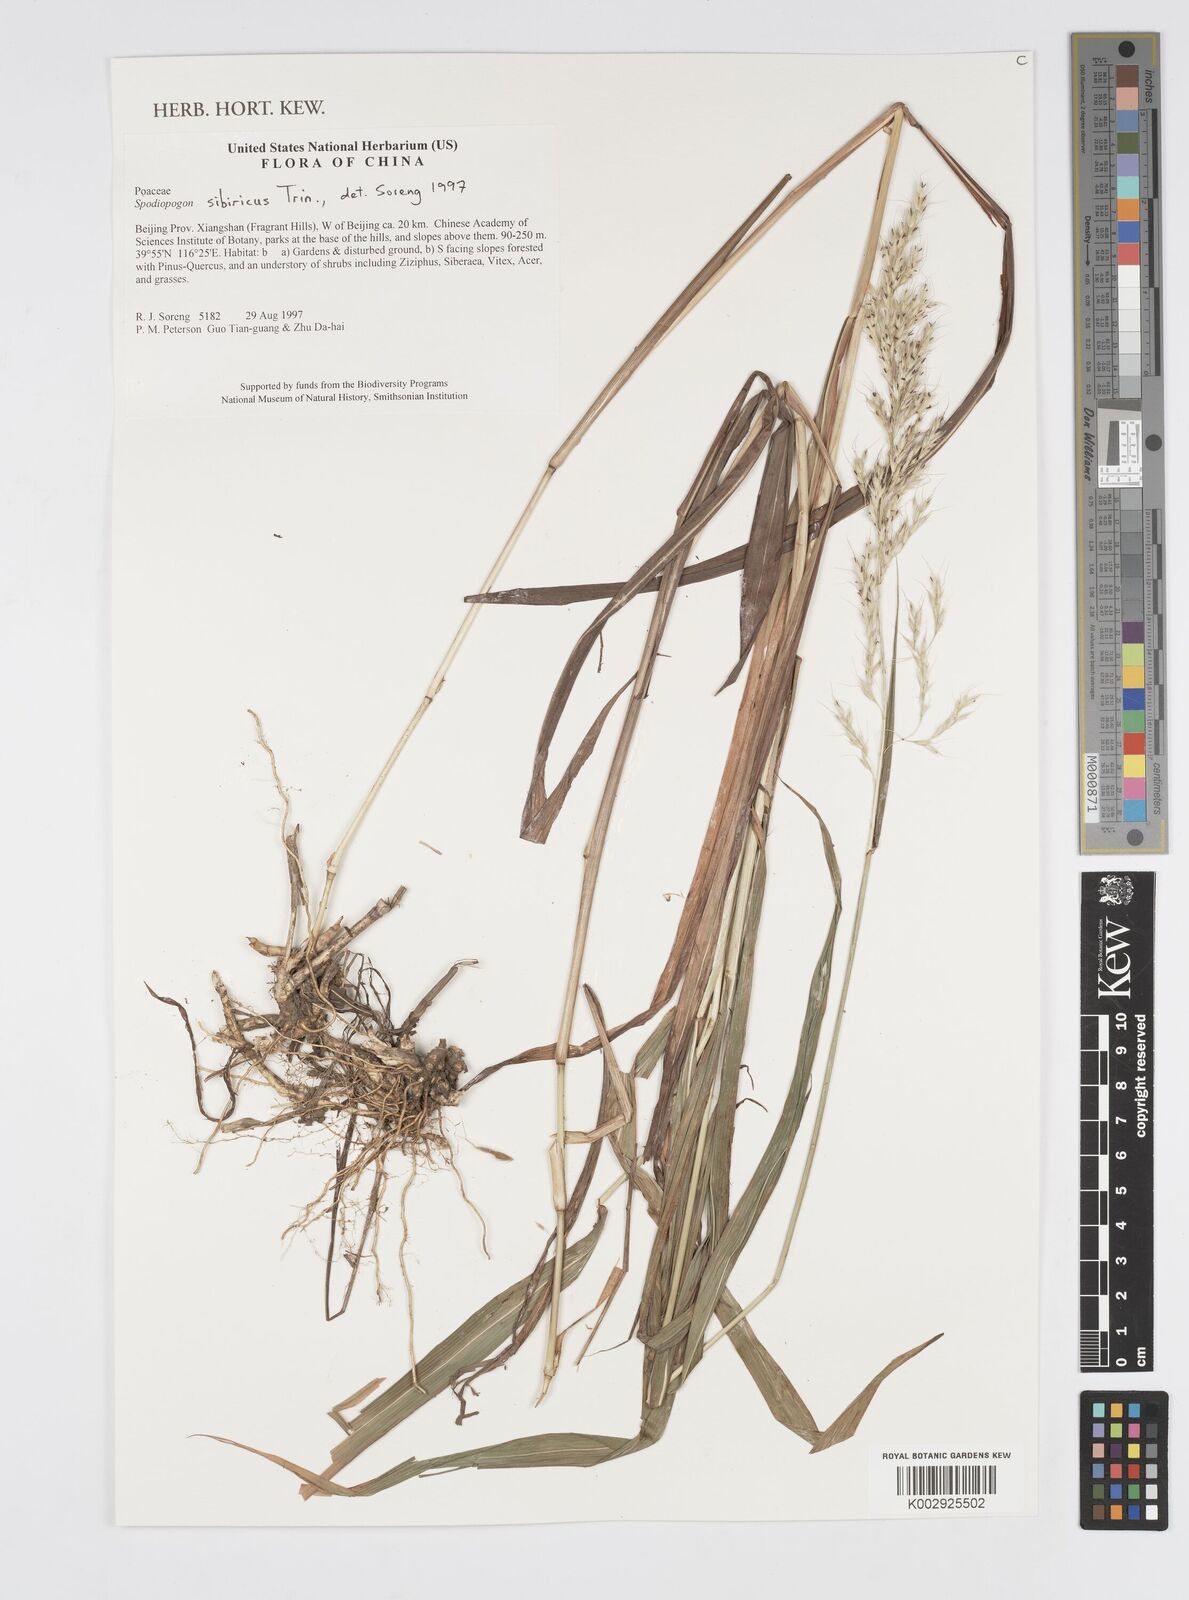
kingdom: Plantae
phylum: Tracheophyta
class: Liliopsida
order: Poales
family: Poaceae
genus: Spodiopogon
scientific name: Spodiopogon sibiricus
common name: Siberian graybeard
